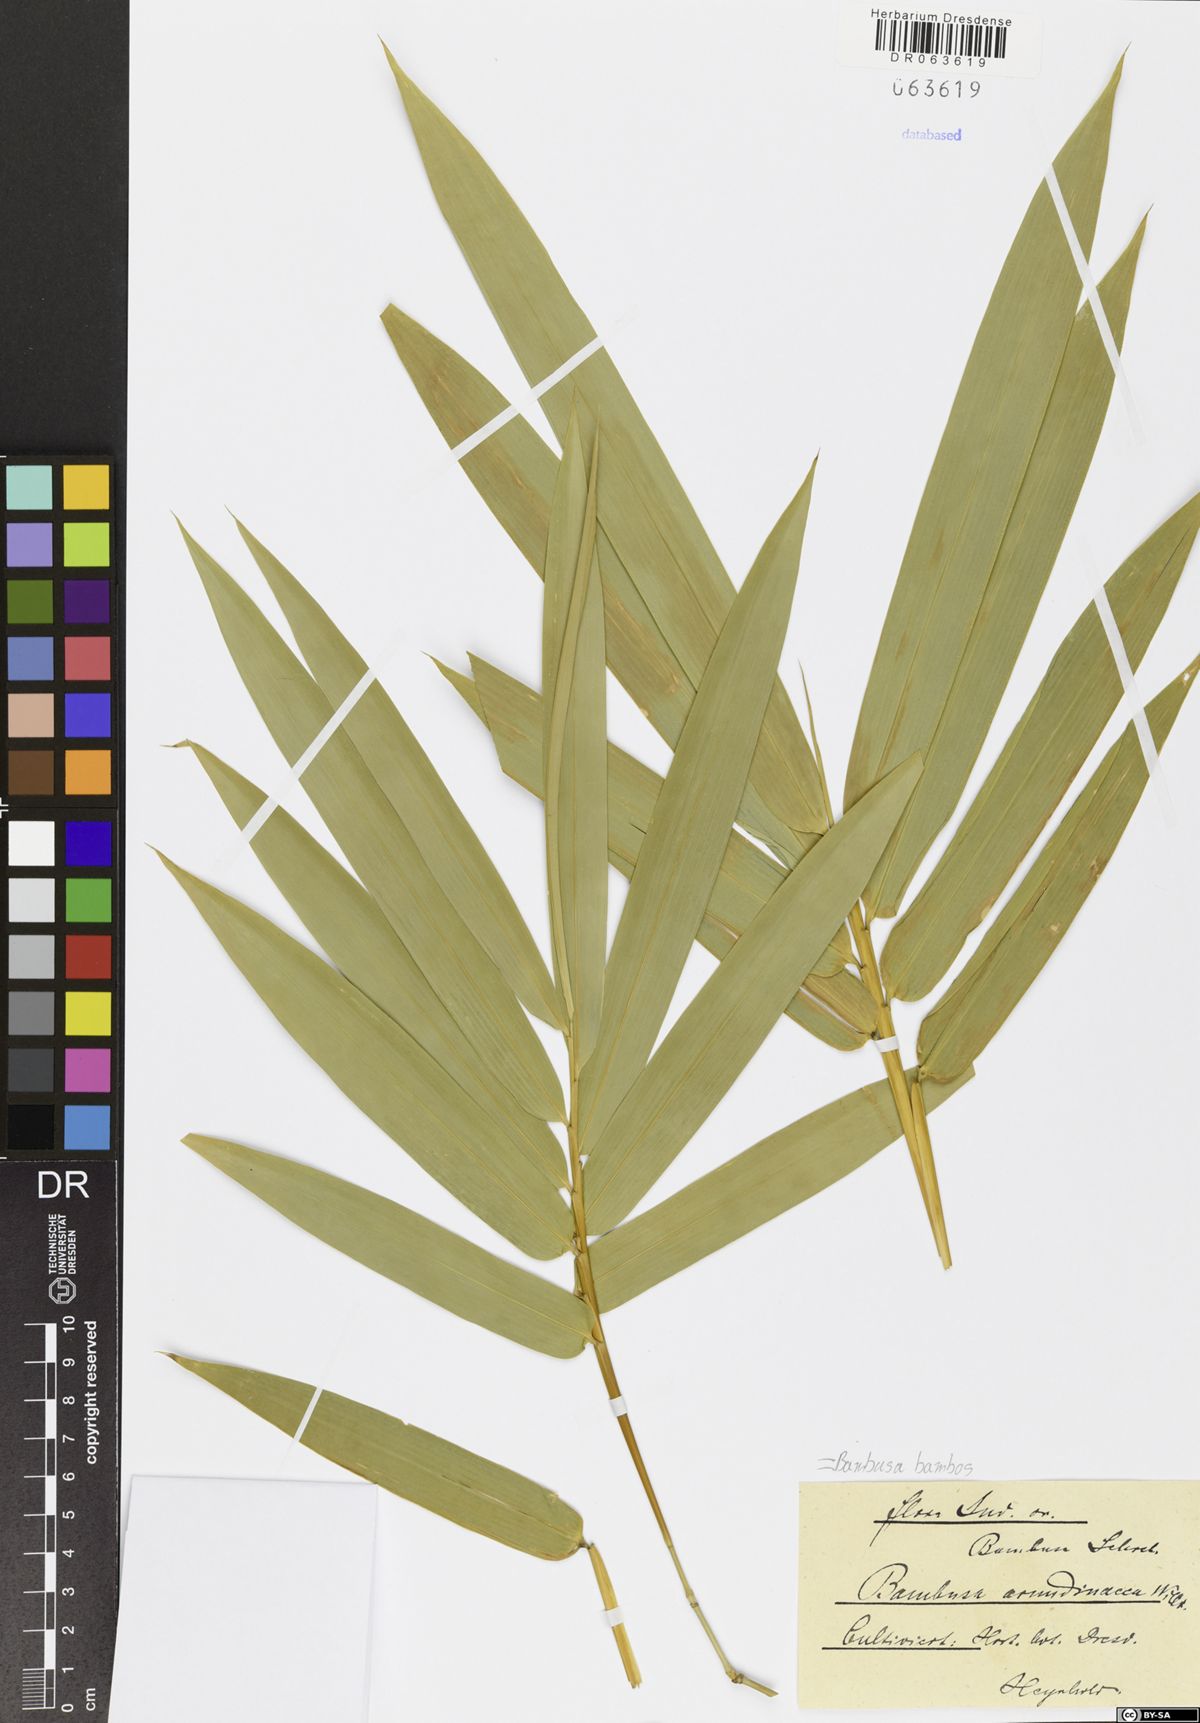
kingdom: Plantae
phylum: Tracheophyta
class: Liliopsida
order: Poales
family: Poaceae
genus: Bambusa
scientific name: Bambusa bambos
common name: Indian thorny bamboo
